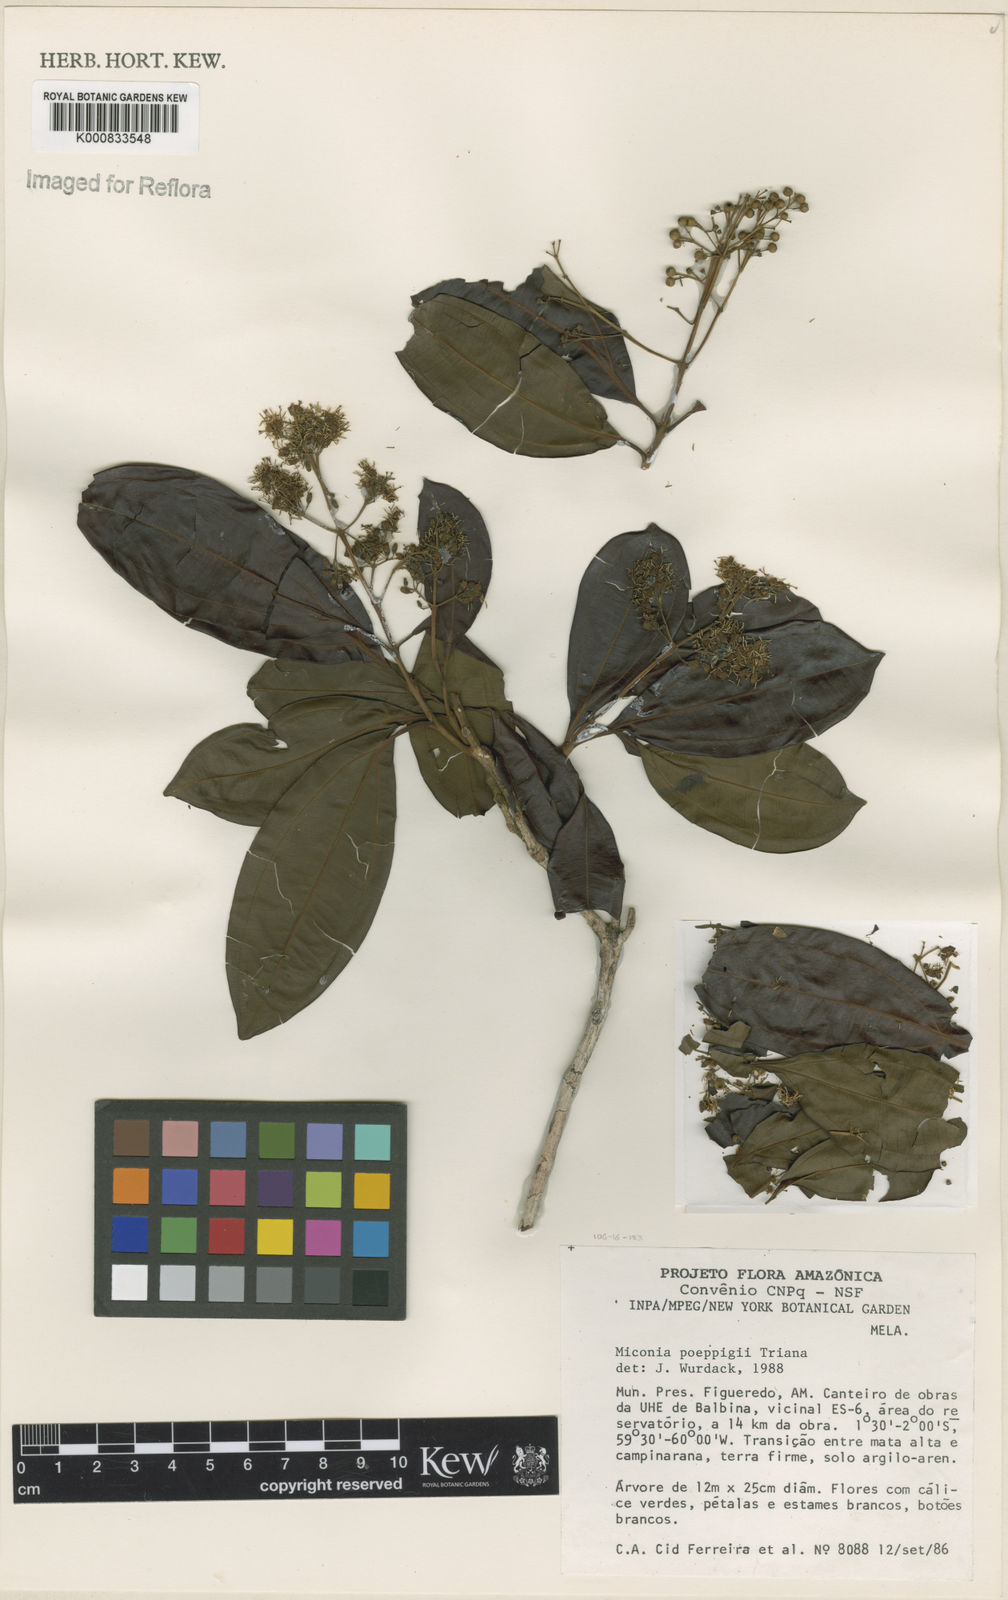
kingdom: Plantae
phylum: Tracheophyta
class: Magnoliopsida
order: Myrtales
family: Melastomataceae
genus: Miconia
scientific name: Miconia poeppigii
